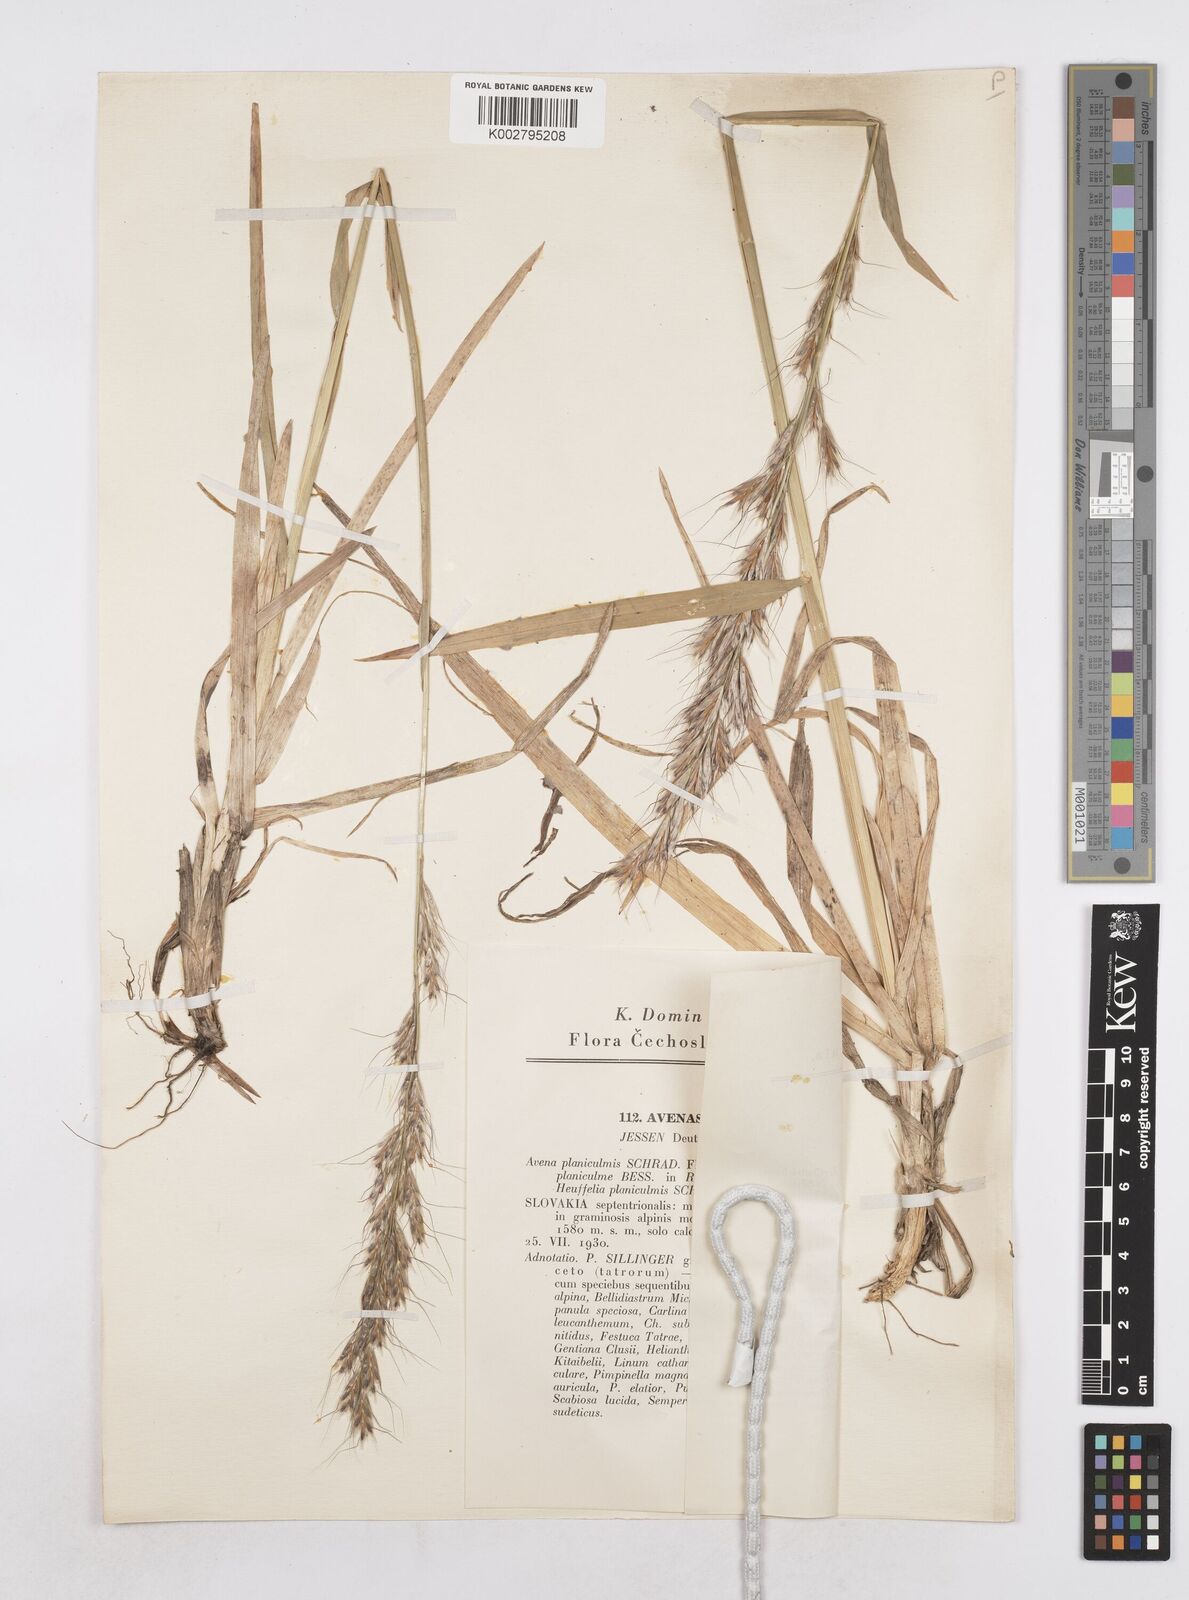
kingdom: Plantae
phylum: Tracheophyta
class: Liliopsida
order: Poales
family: Poaceae
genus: Helictochloa
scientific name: Helictochloa planiculmis
